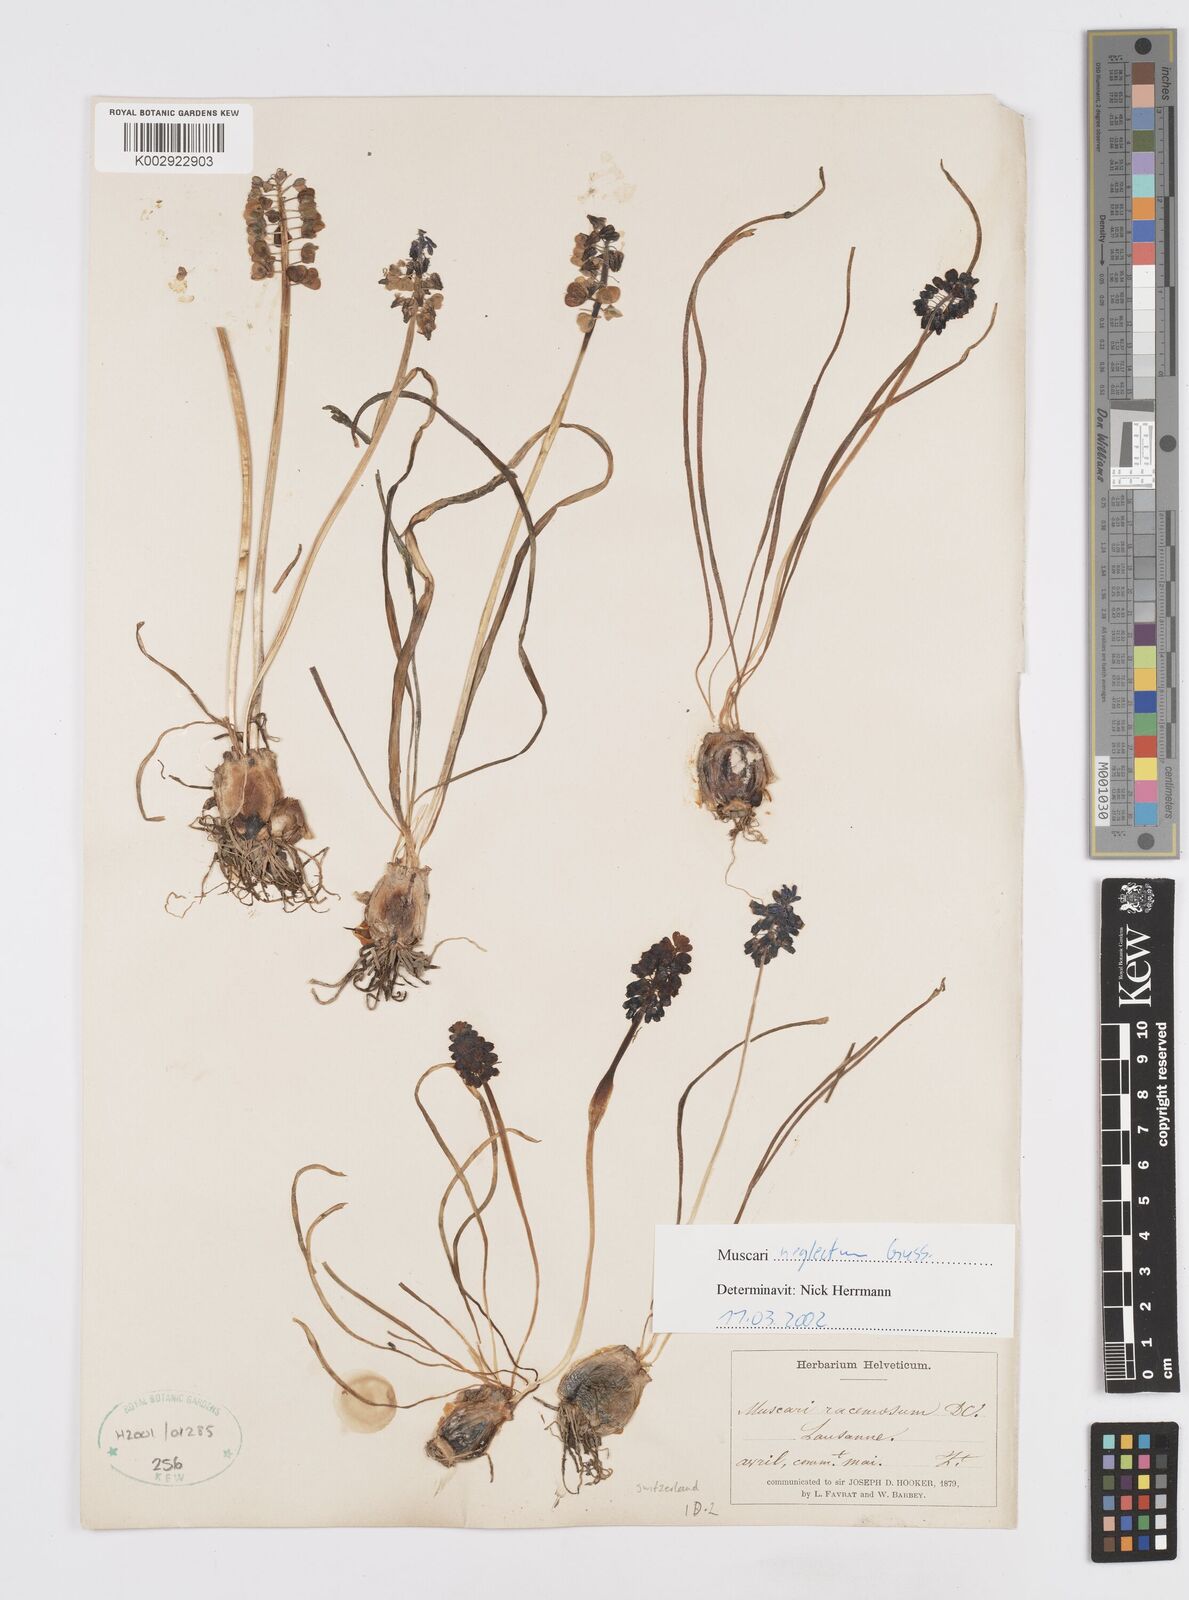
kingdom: Plantae
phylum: Tracheophyta
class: Liliopsida
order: Asparagales
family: Asparagaceae
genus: Muscarimia
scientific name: Muscarimia muscari
